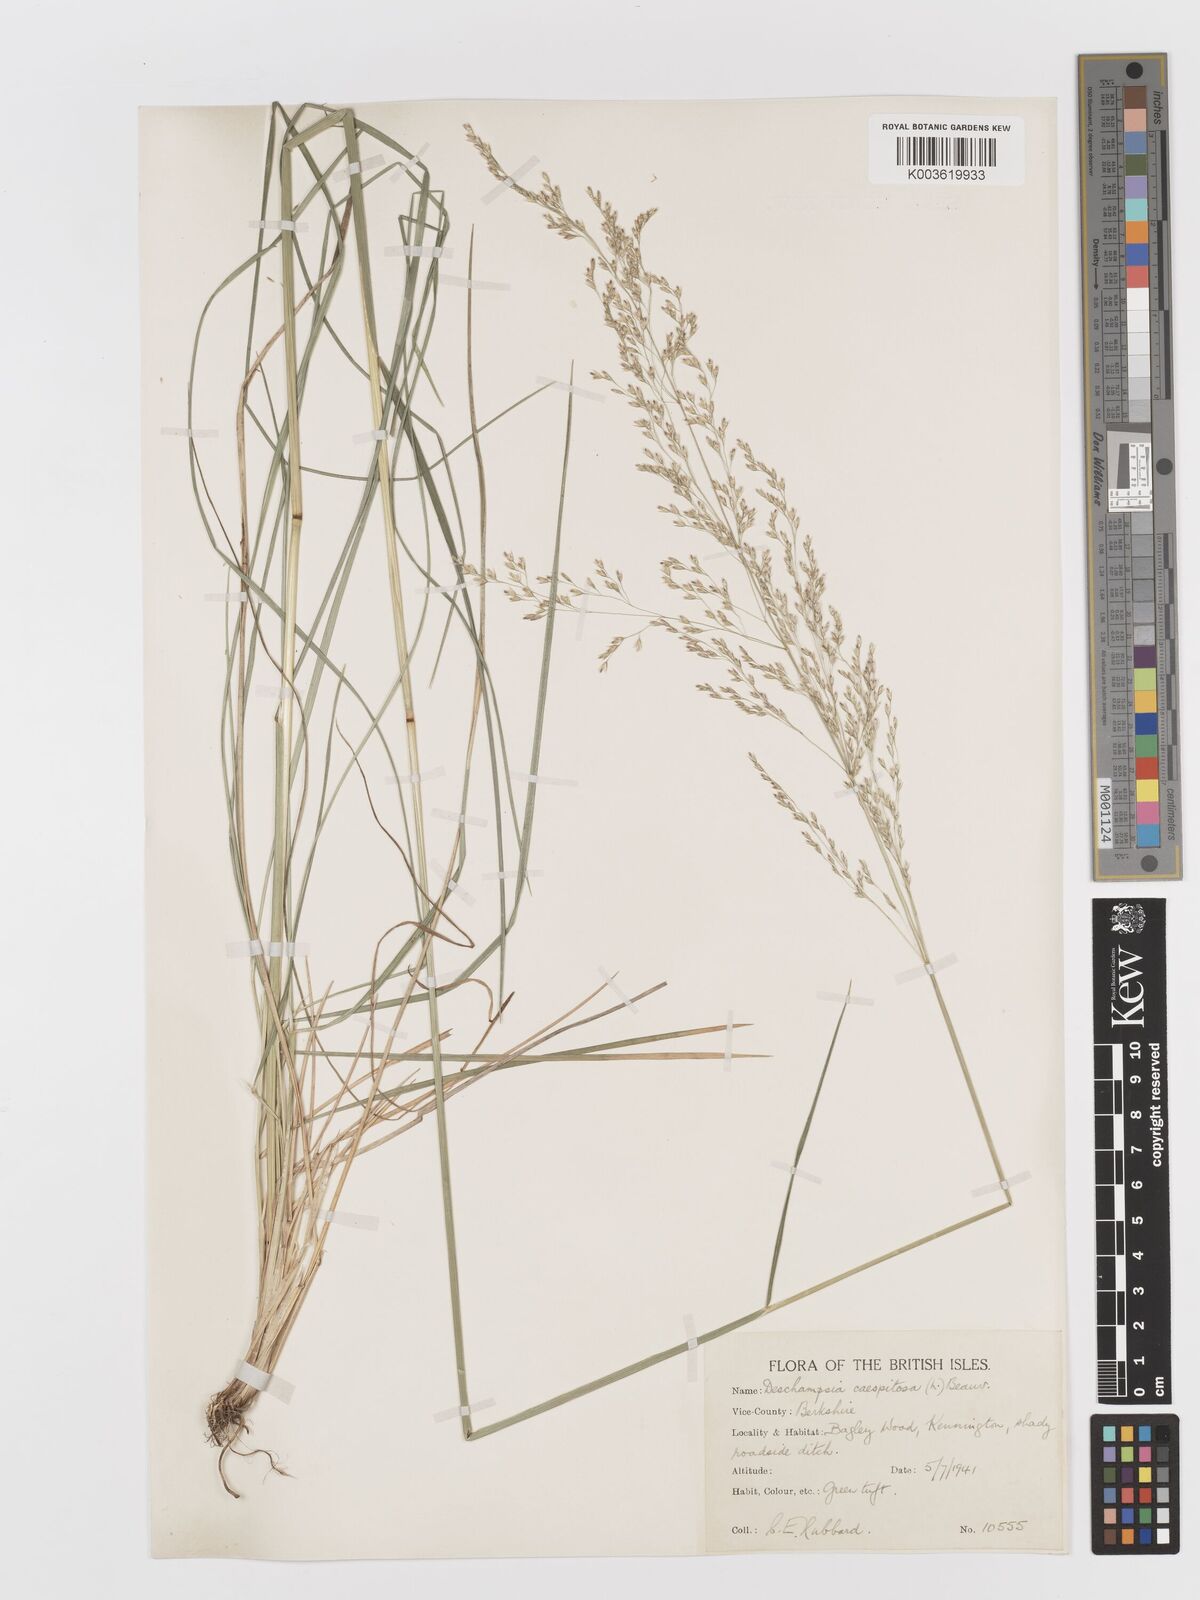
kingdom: Plantae
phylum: Tracheophyta
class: Liliopsida
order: Poales
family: Poaceae
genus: Deschampsia
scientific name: Deschampsia
